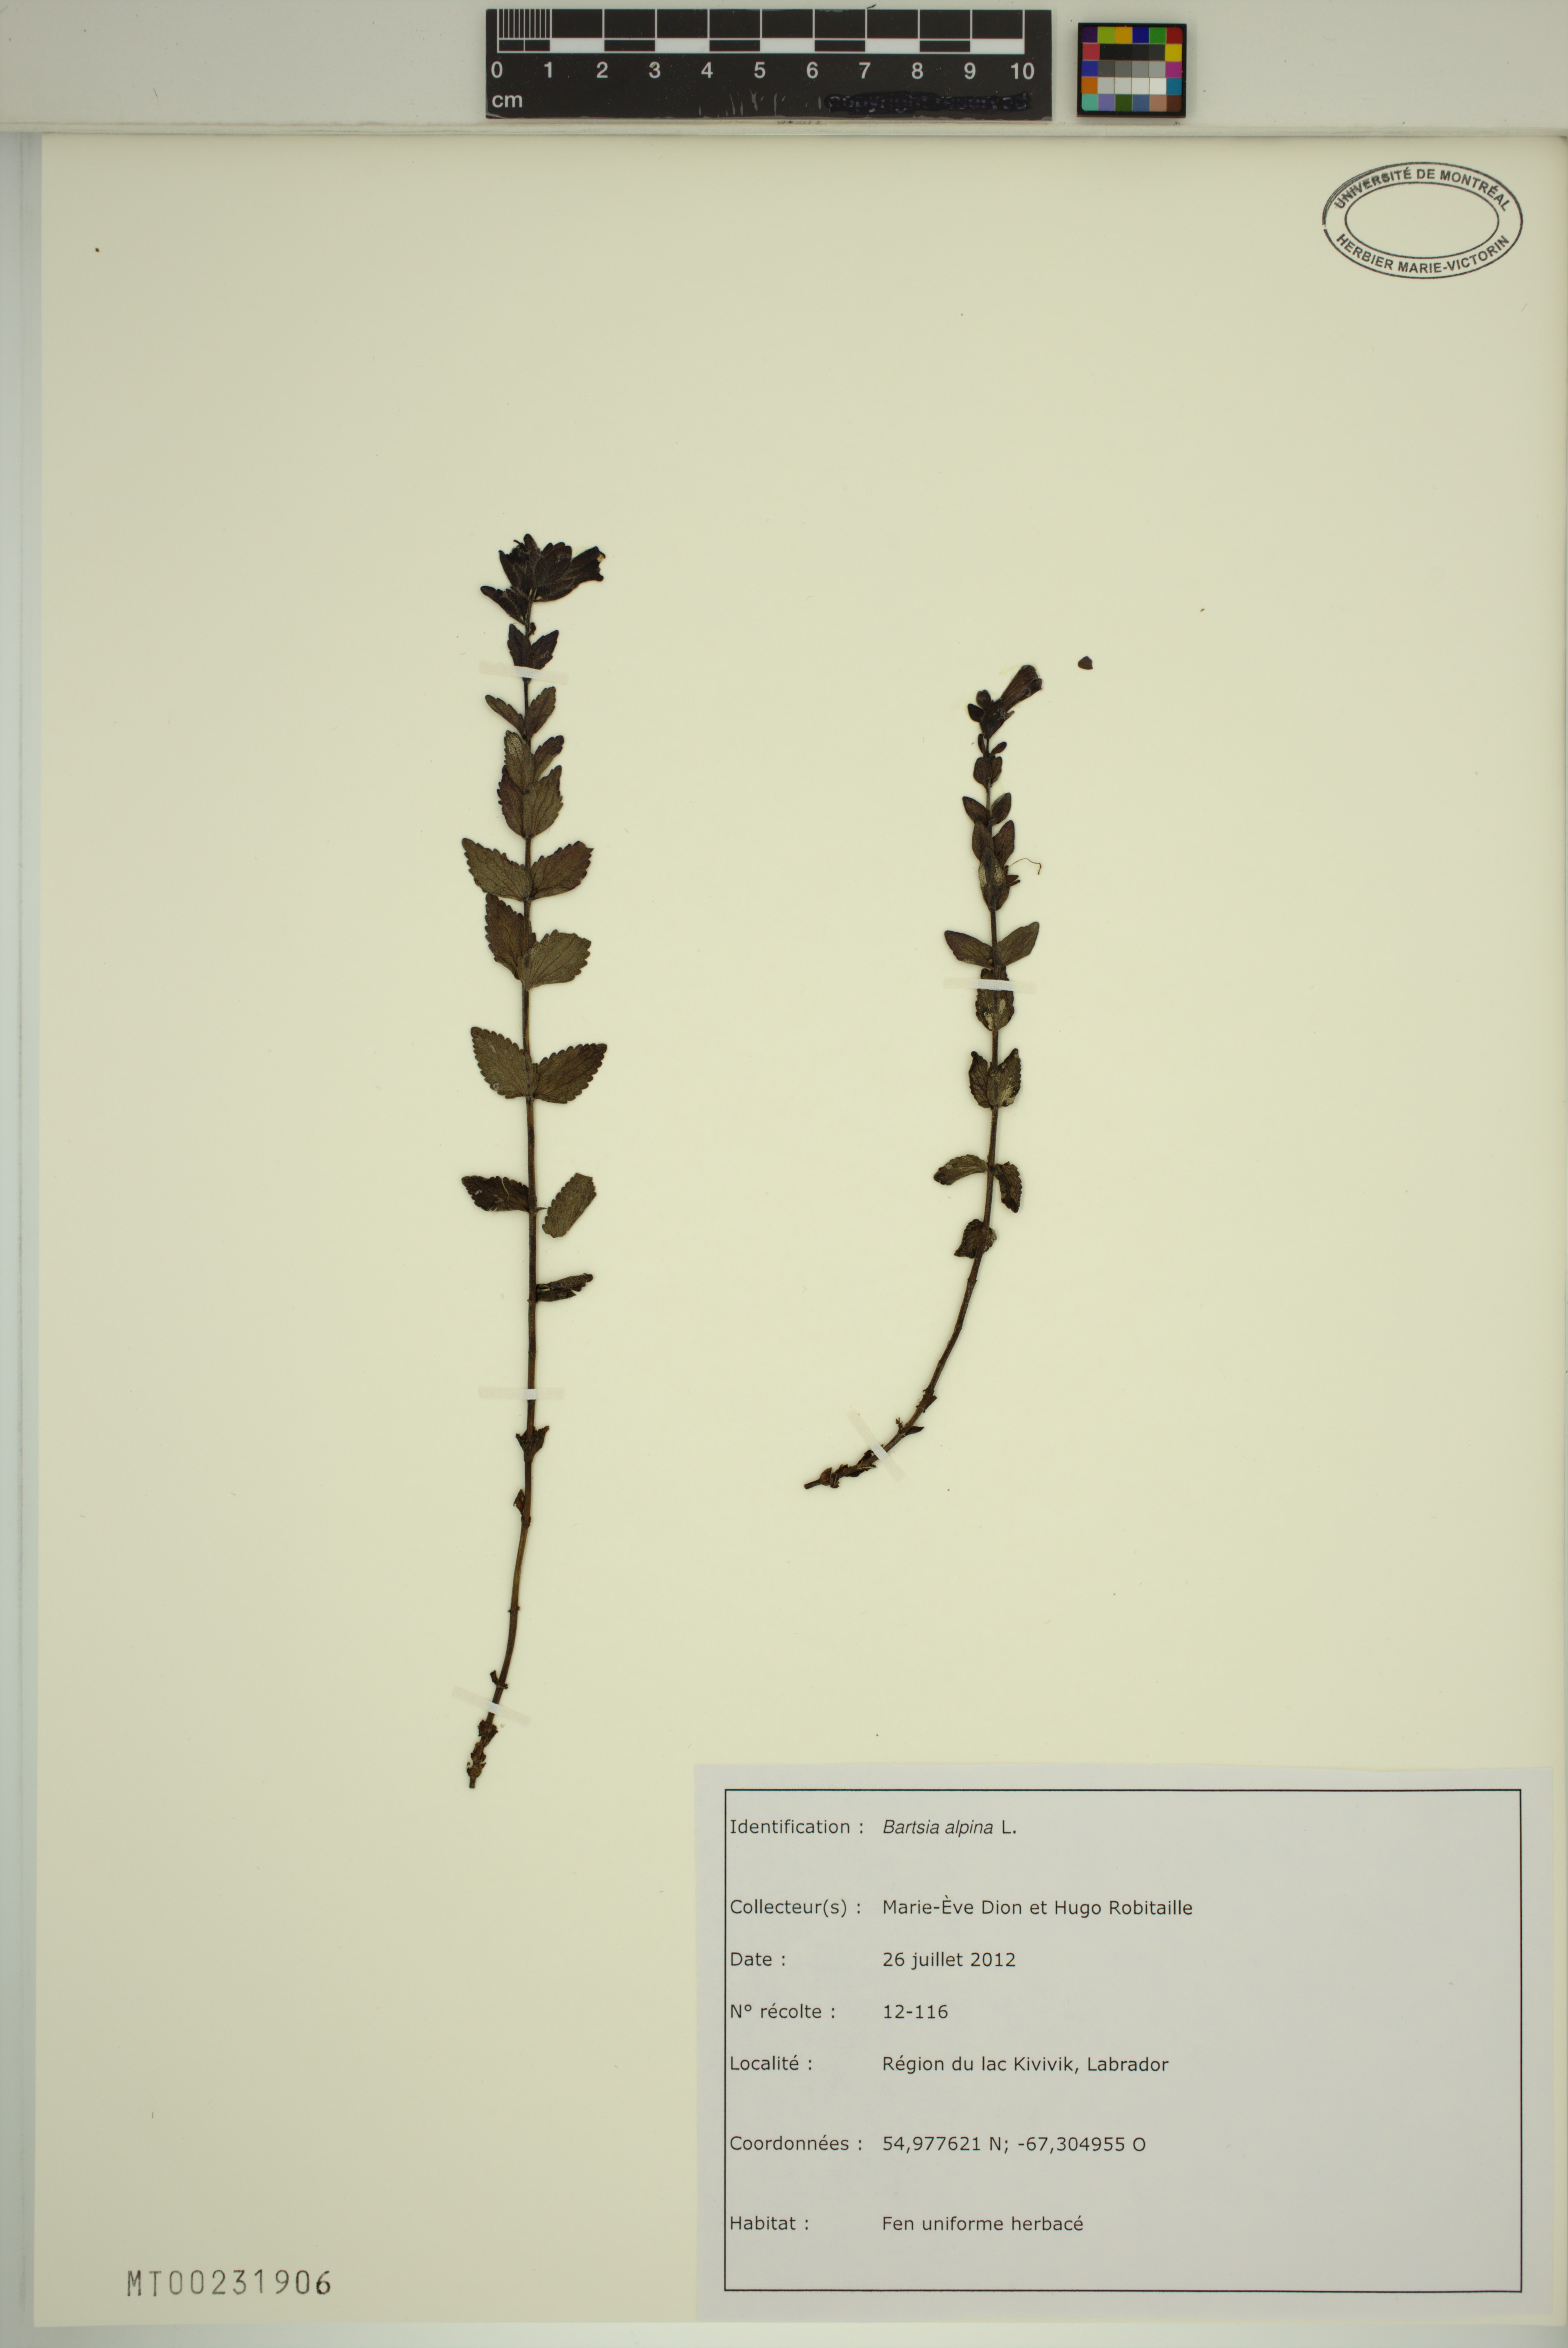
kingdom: Plantae
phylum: Tracheophyta
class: Magnoliopsida
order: Lamiales
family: Orobanchaceae
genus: Bartsia
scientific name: Bartsia alpina
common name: Alpine bartsia
